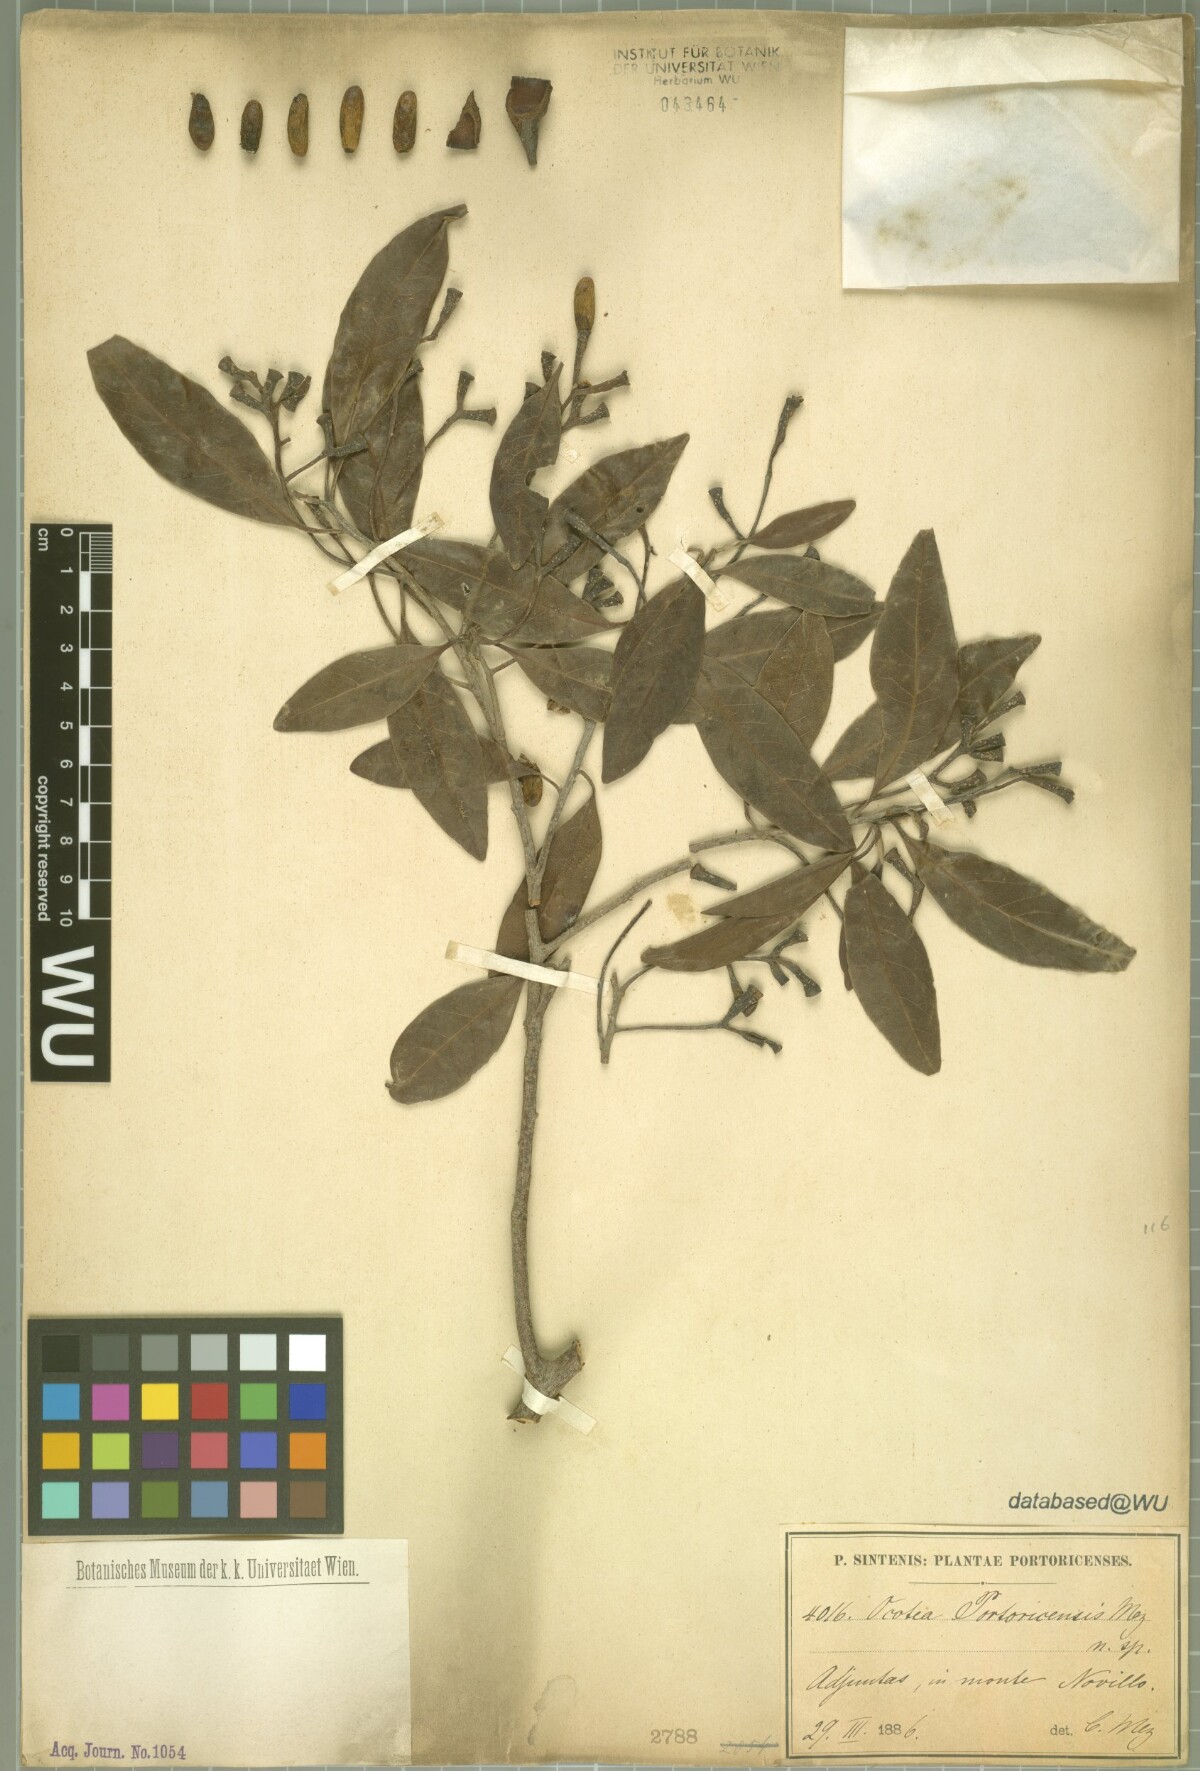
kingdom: Plantae
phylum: Tracheophyta
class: Magnoliopsida
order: Laurales
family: Lauraceae
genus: Ocotea
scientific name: Ocotea portoricensis
